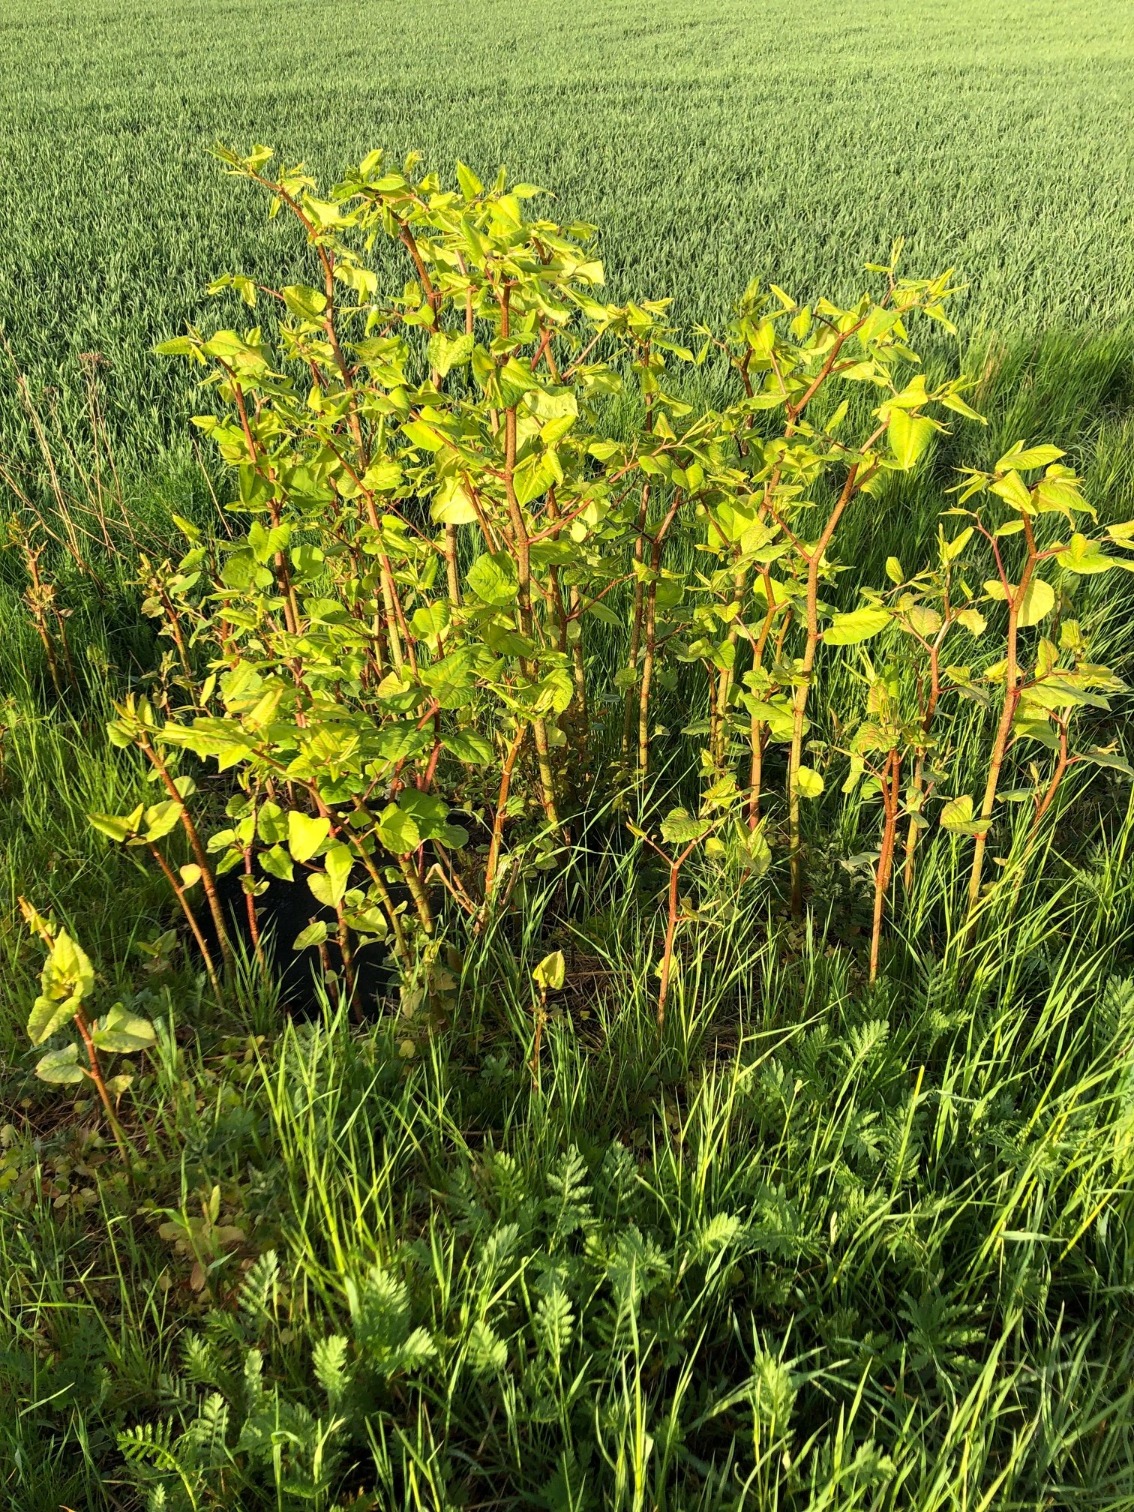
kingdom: Plantae
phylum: Tracheophyta
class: Magnoliopsida
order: Caryophyllales
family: Polygonaceae
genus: Reynoutria
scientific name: Reynoutria
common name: Pileurt (Reynoutria-slægten)
